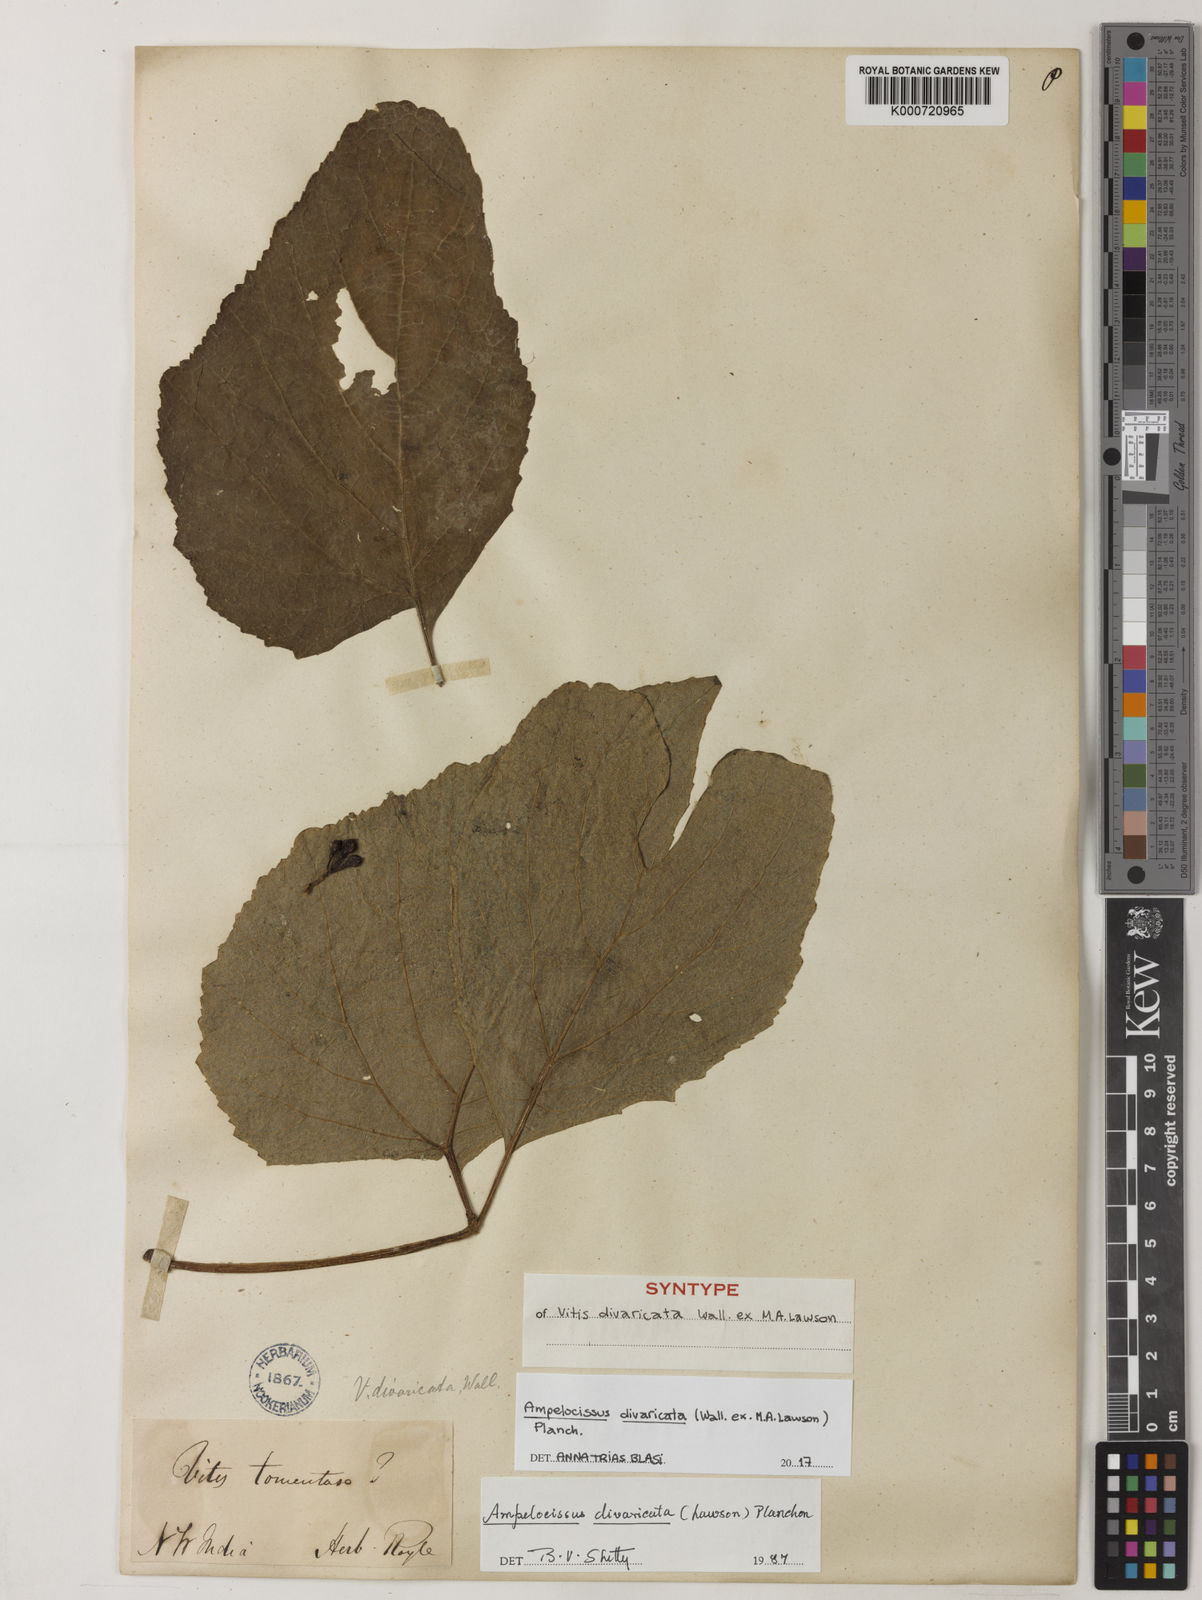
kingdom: Plantae
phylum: Tracheophyta
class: Magnoliopsida
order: Vitales
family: Vitaceae
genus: Ampelocissus
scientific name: Ampelocissus divaricata
